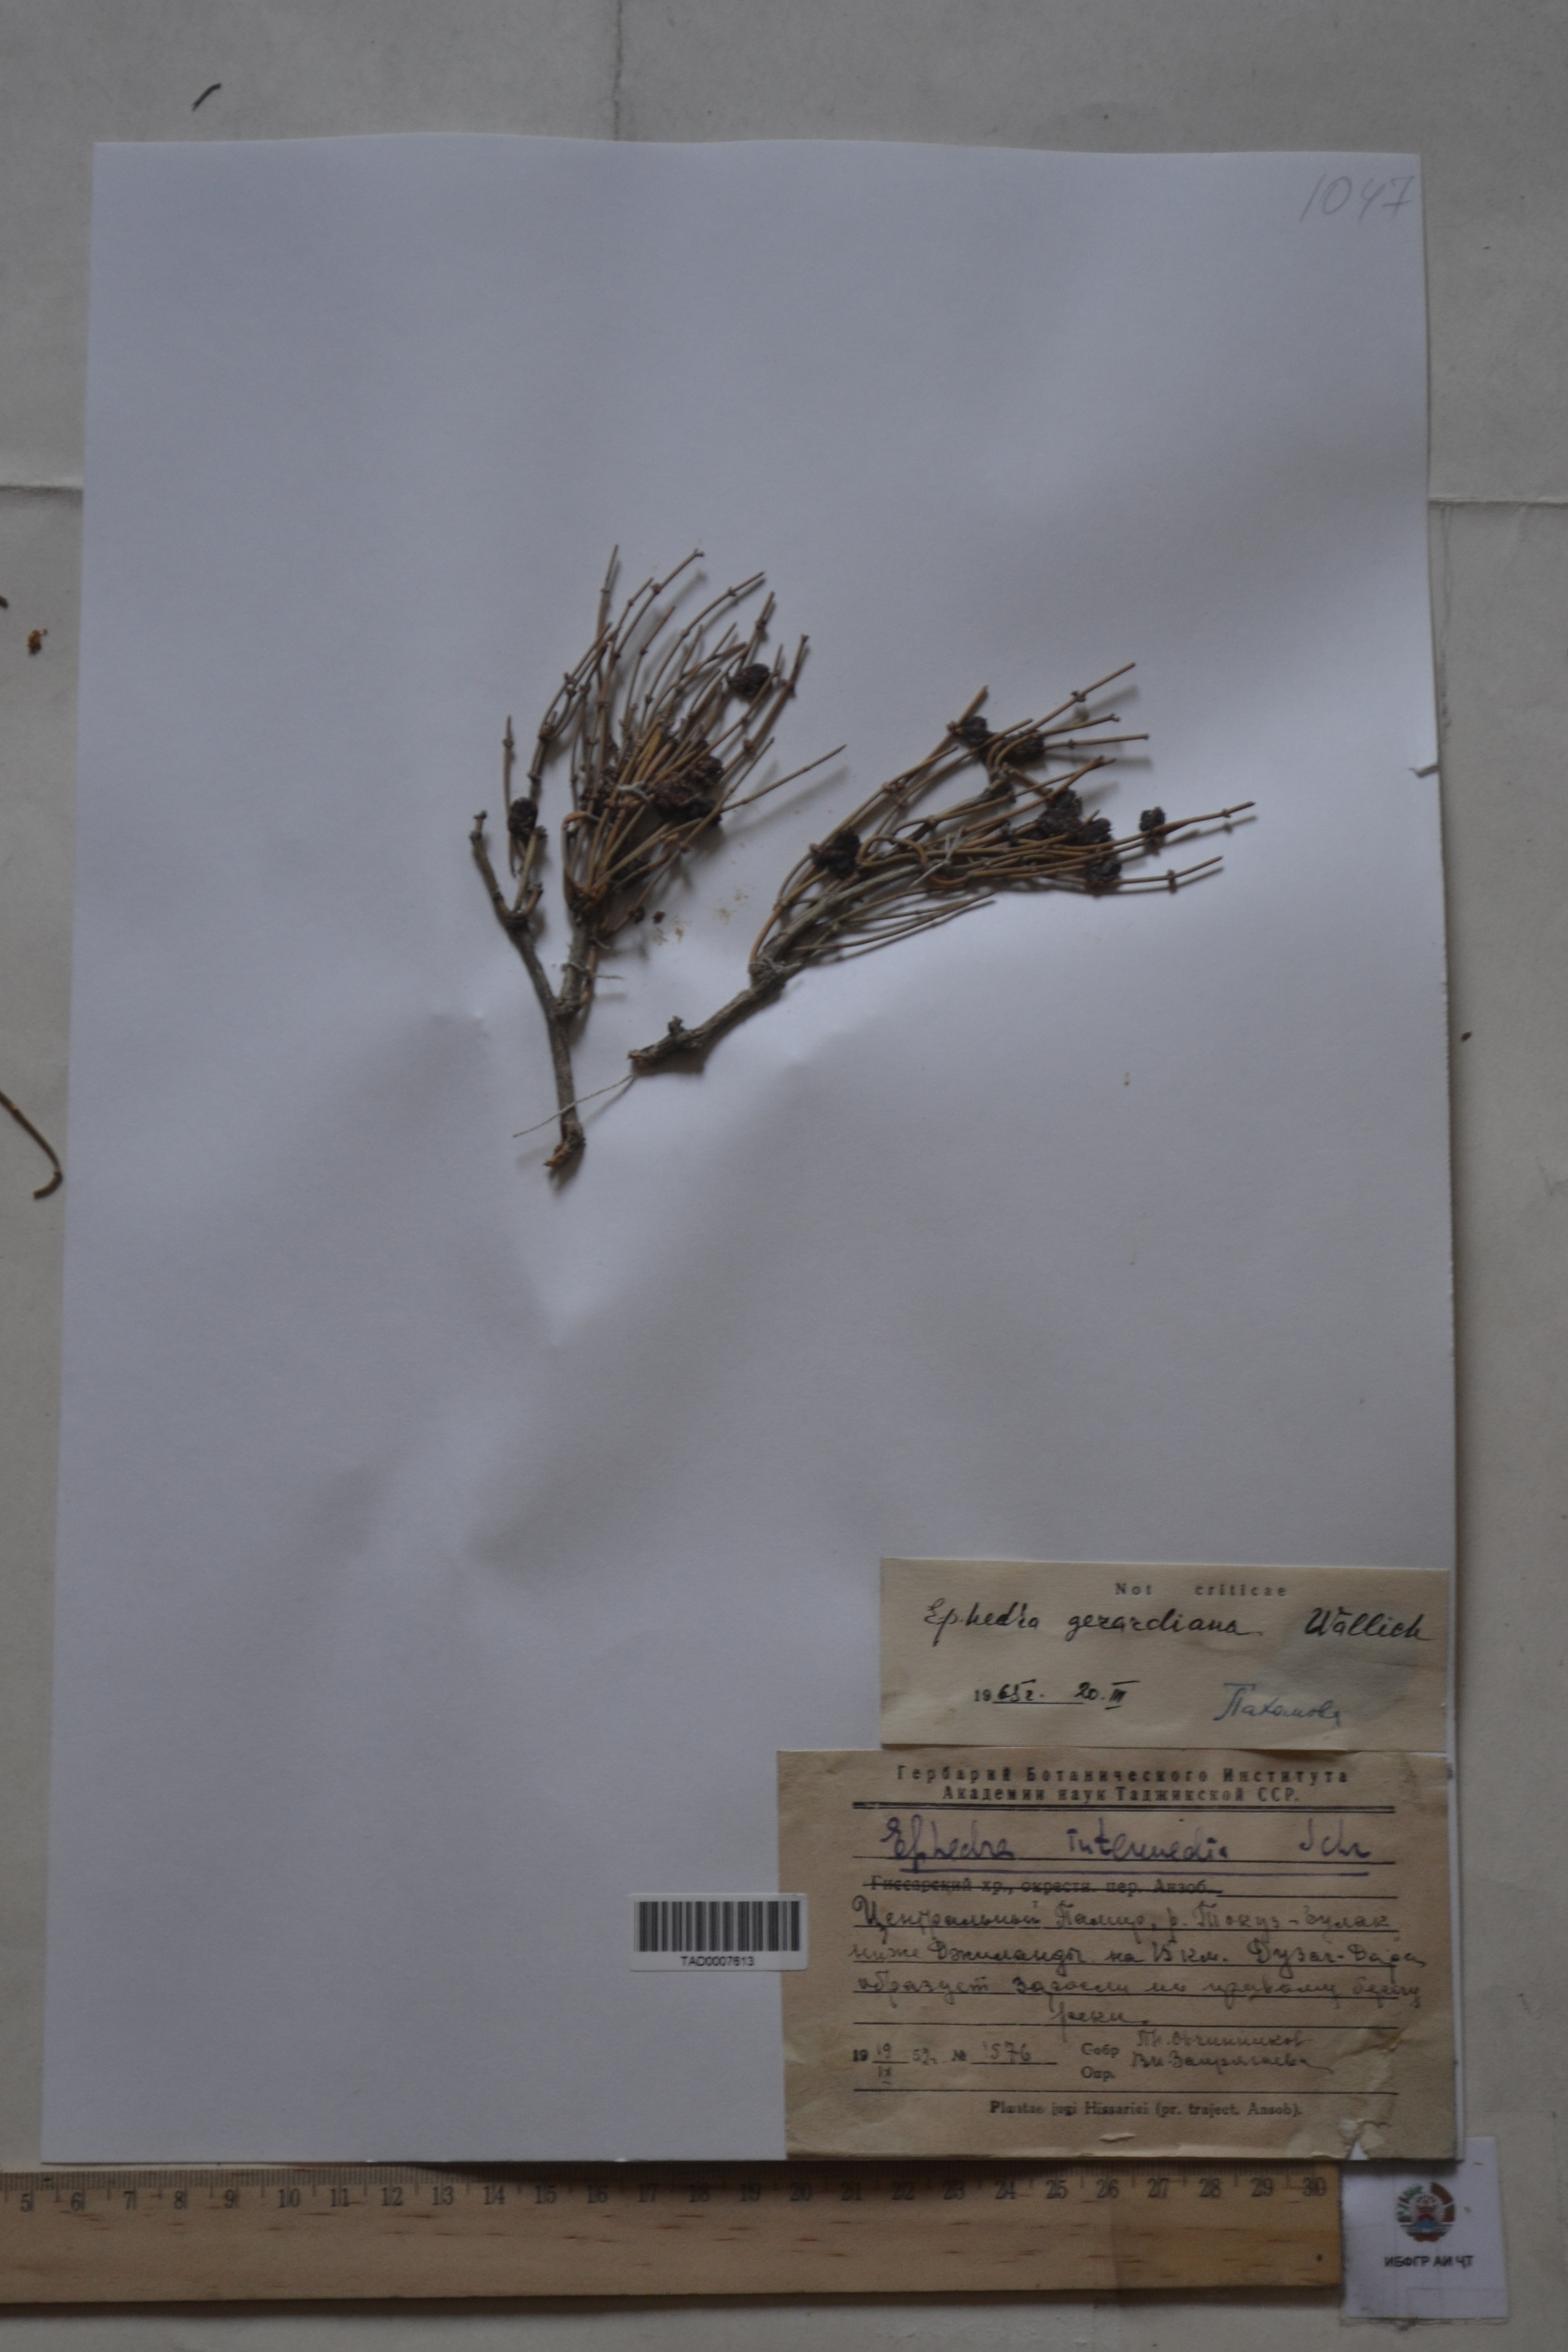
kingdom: Plantae
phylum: Tracheophyta
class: Gnetopsida
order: Ephedrales
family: Ephedraceae
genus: Ephedra
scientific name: Ephedra gerardiana
